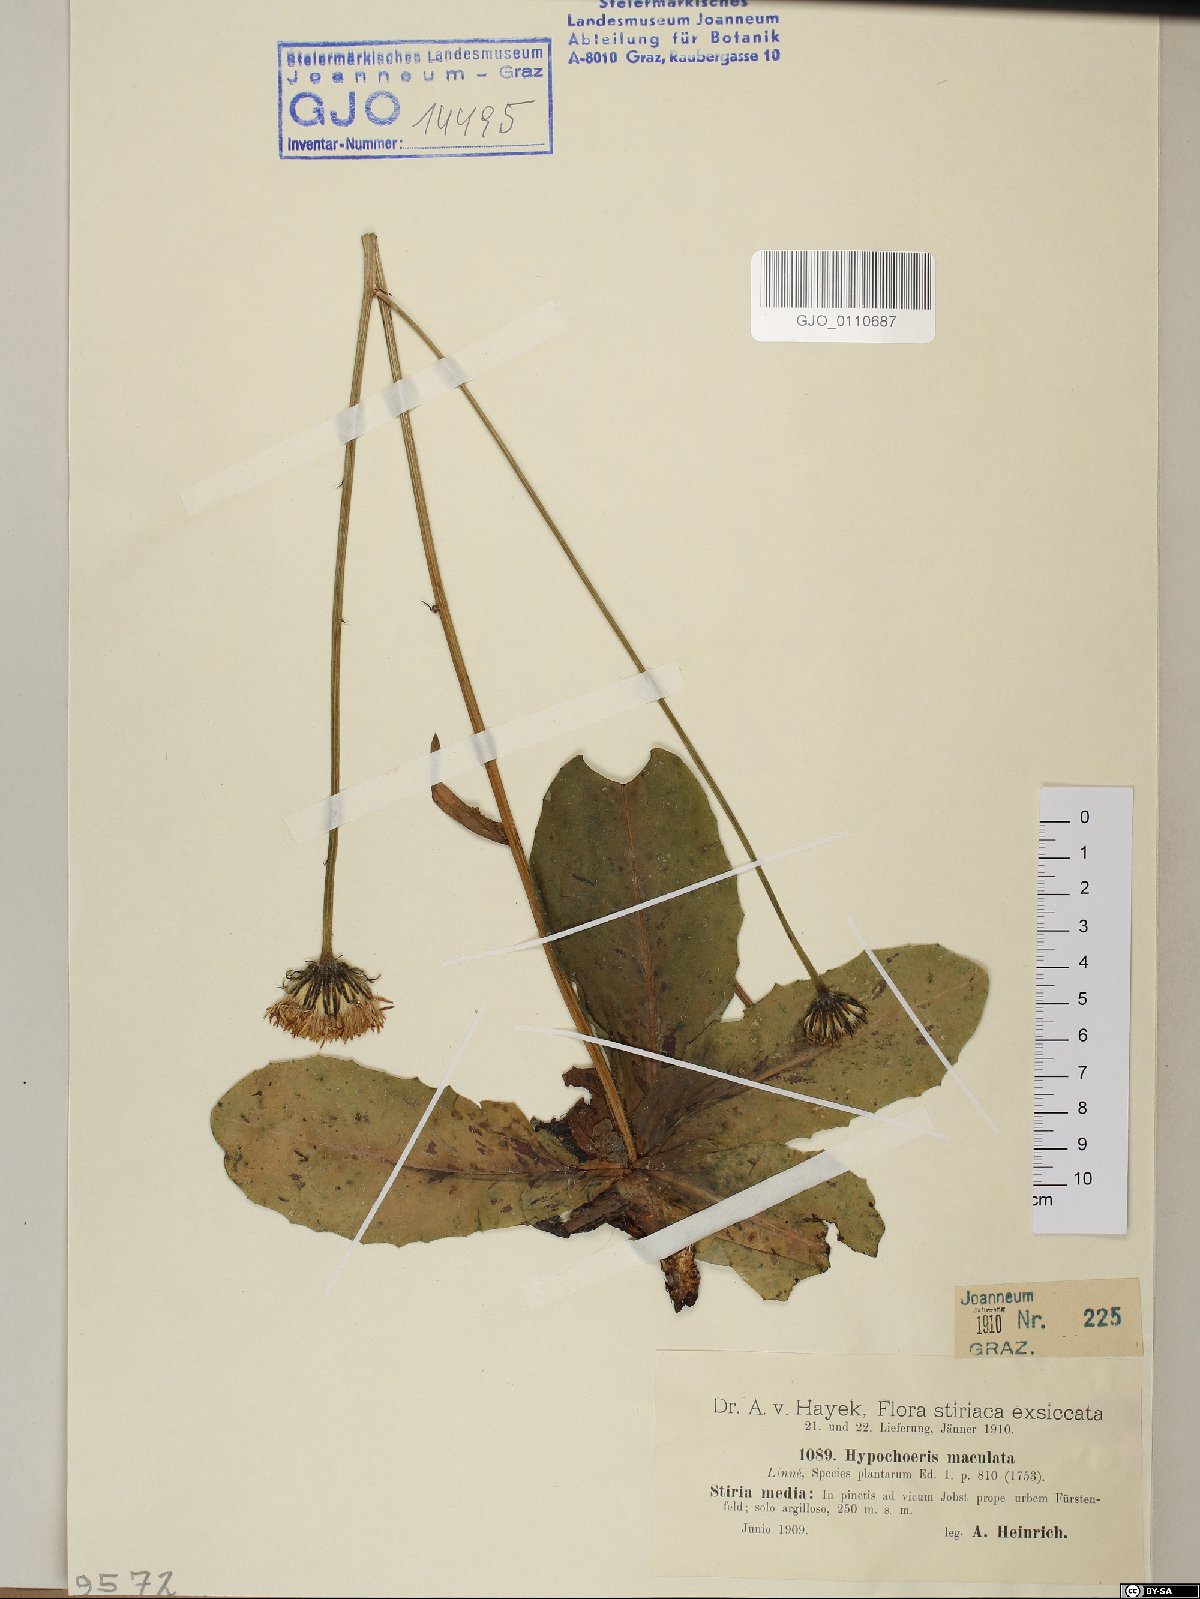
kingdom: Plantae
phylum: Tracheophyta
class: Magnoliopsida
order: Asterales
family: Asteraceae
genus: Trommsdorffia
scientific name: Trommsdorffia maculata
